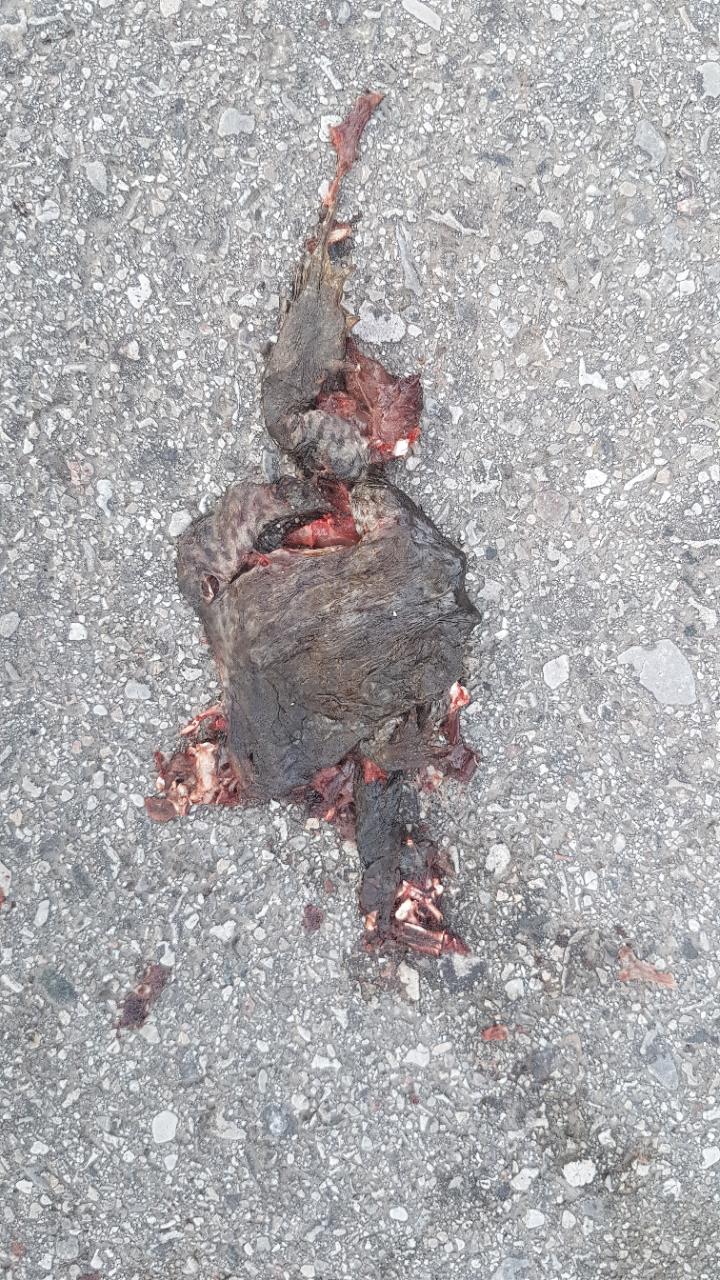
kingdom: Animalia
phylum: Chordata
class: Amphibia
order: Anura
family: Bufonidae
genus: Bufo
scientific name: Bufo bufo
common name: Common toad
